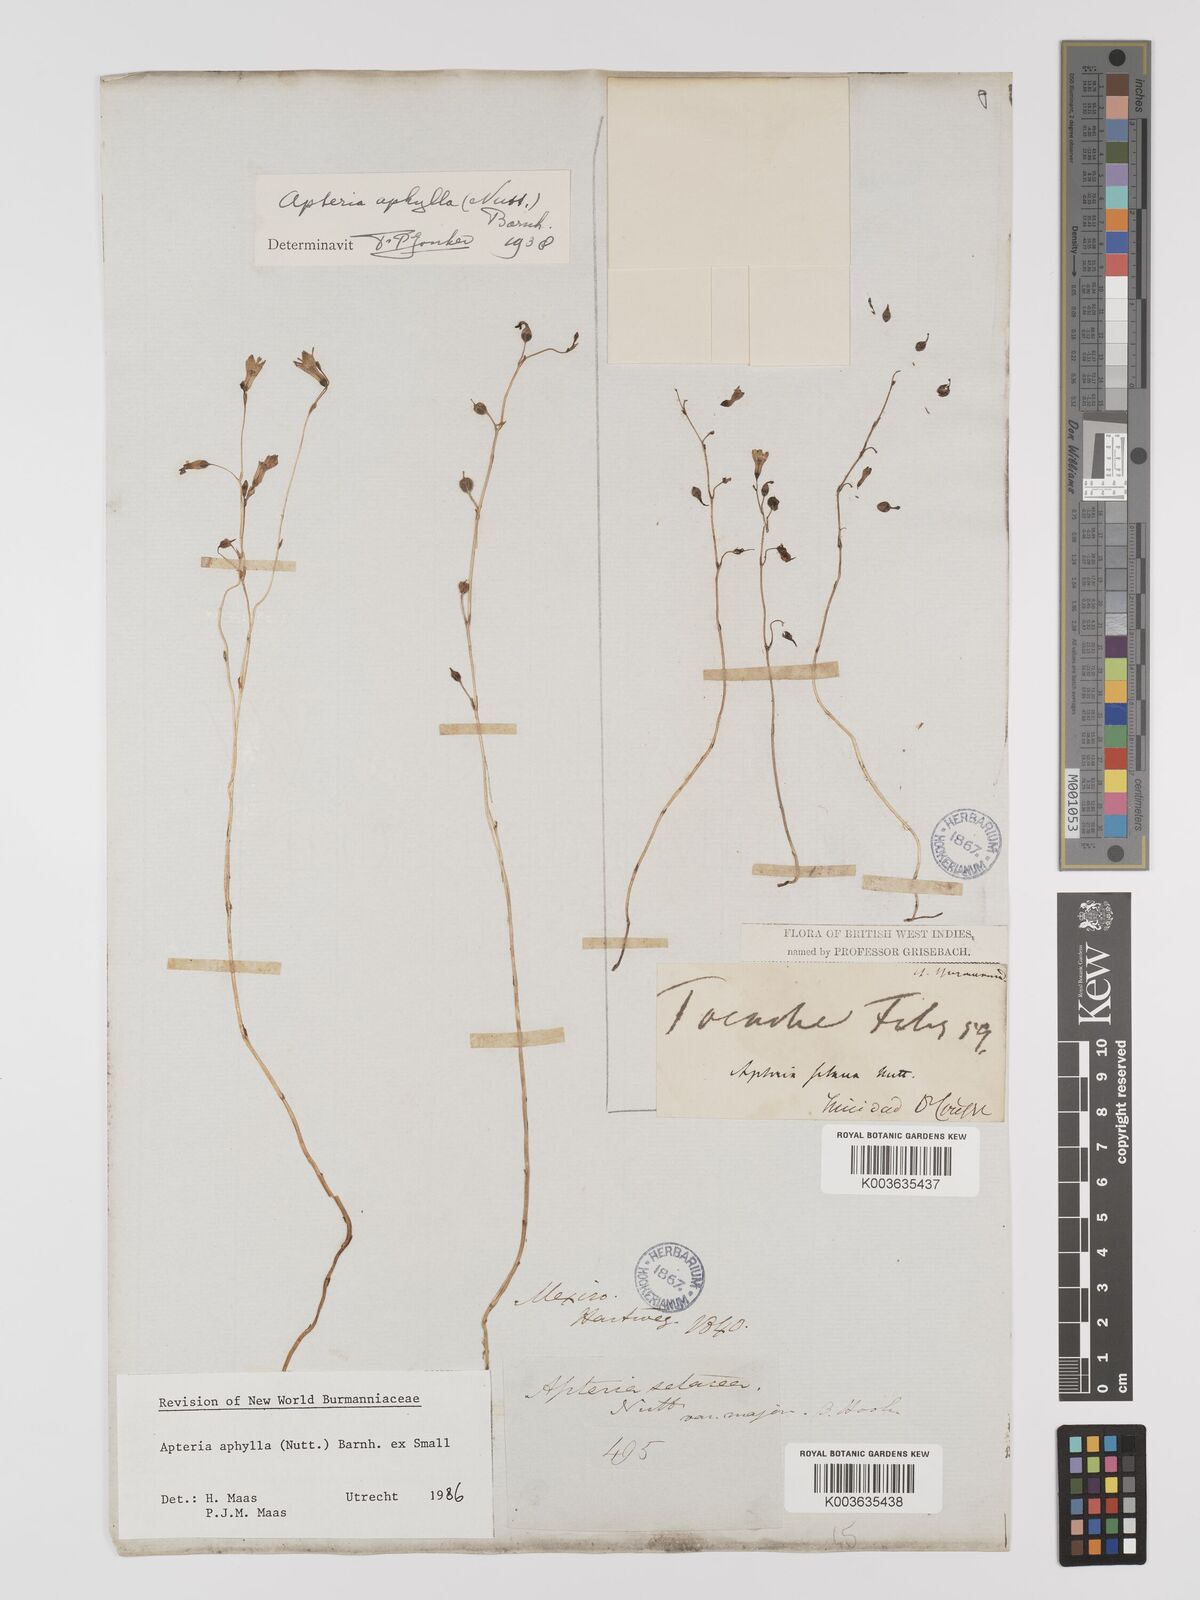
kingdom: Plantae
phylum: Tracheophyta
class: Liliopsida
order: Dioscoreales
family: Burmanniaceae
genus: Apteria
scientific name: Apteria aphylla
